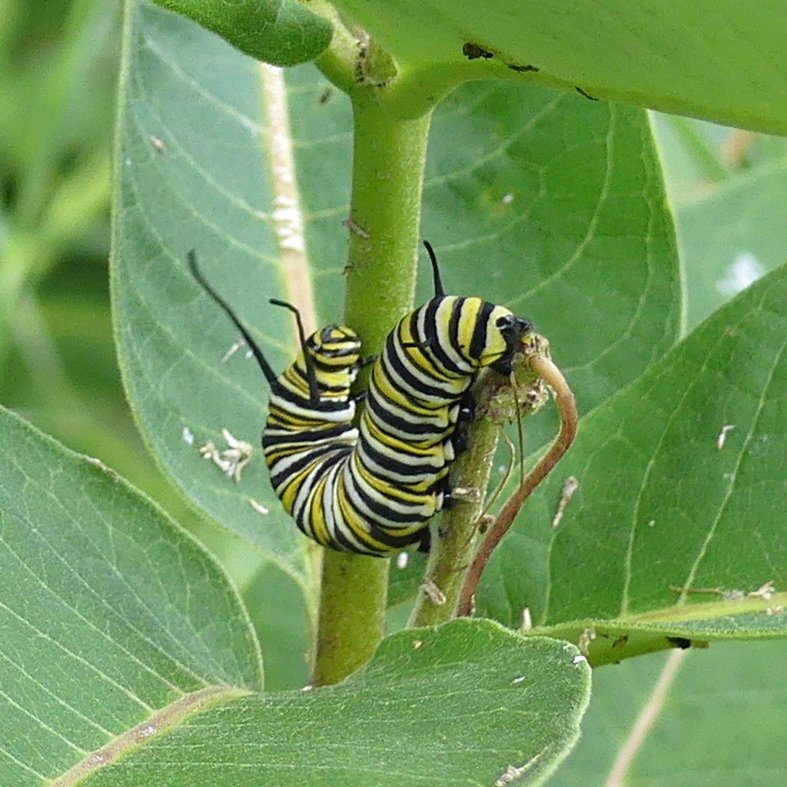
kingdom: Animalia
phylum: Arthropoda
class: Insecta
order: Lepidoptera
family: Nymphalidae
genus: Danaus
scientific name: Danaus plexippus
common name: Monarch
